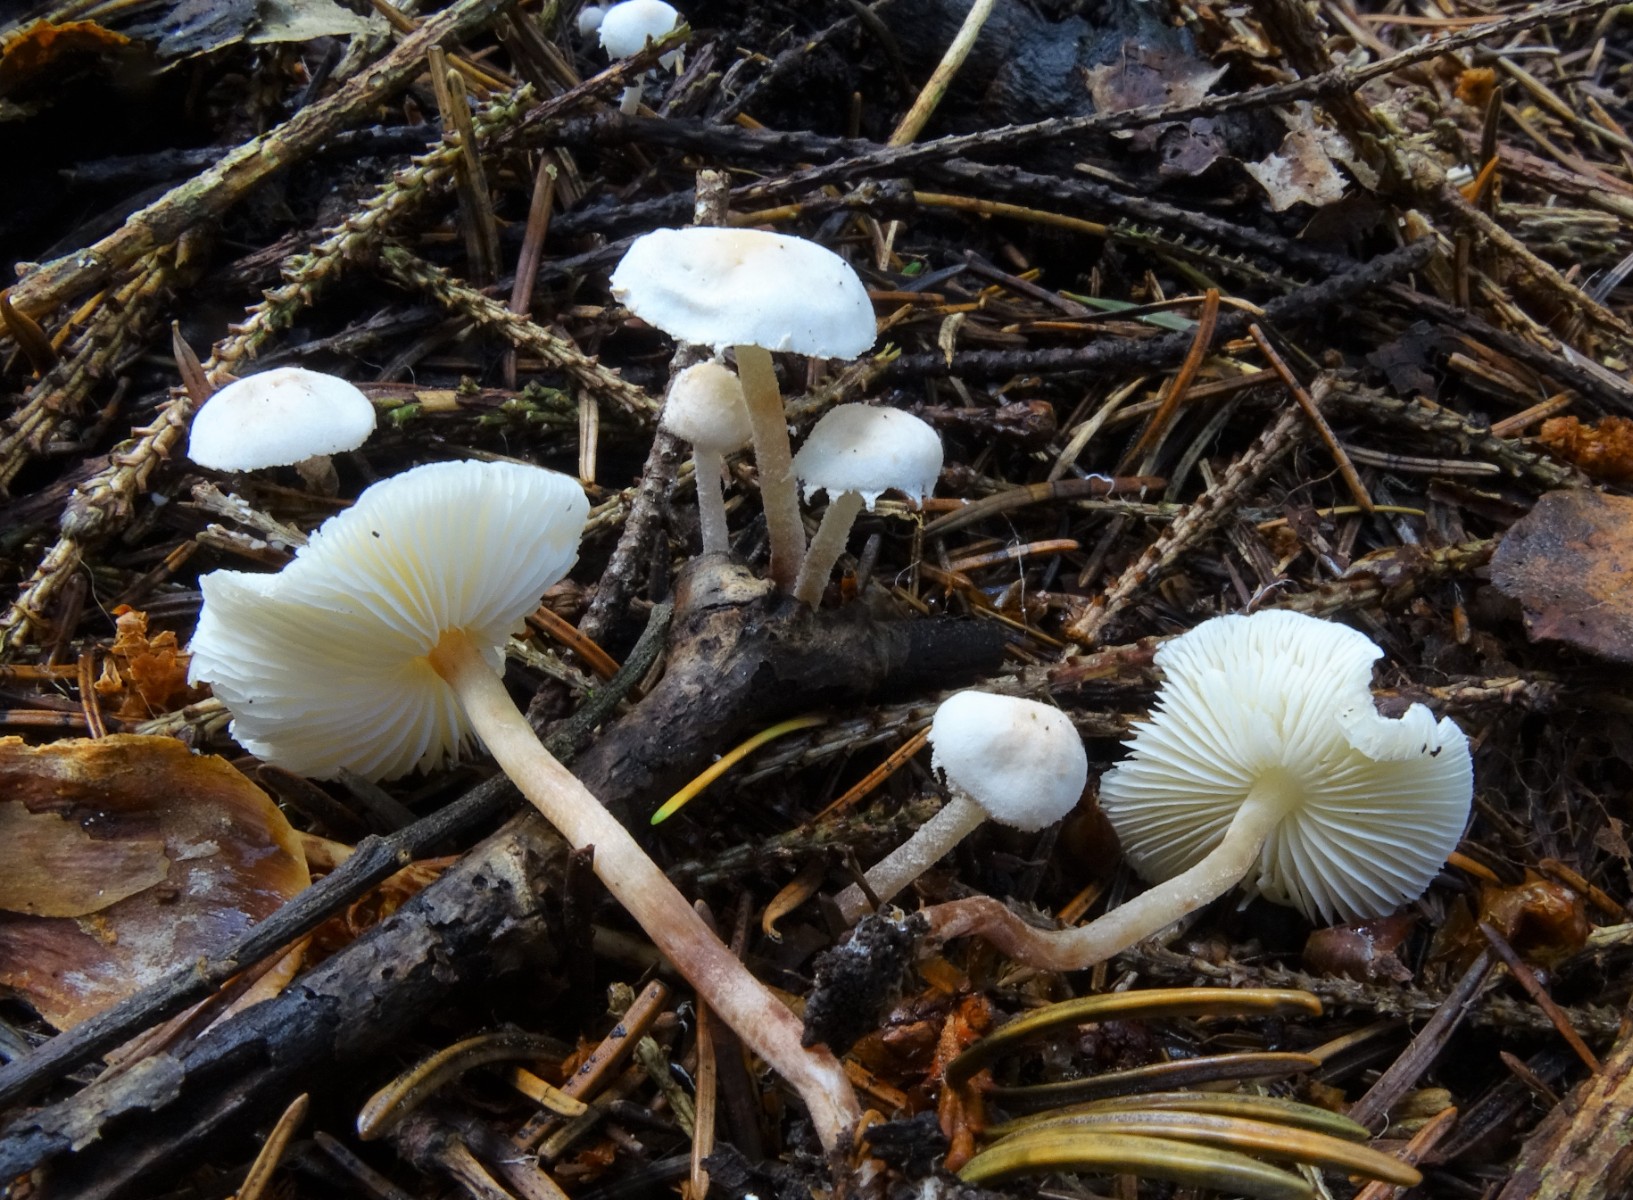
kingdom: Fungi
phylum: Basidiomycota
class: Agaricomycetes
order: Agaricales
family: Agaricaceae
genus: Cystolepiota
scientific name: Cystolepiota seminuda
